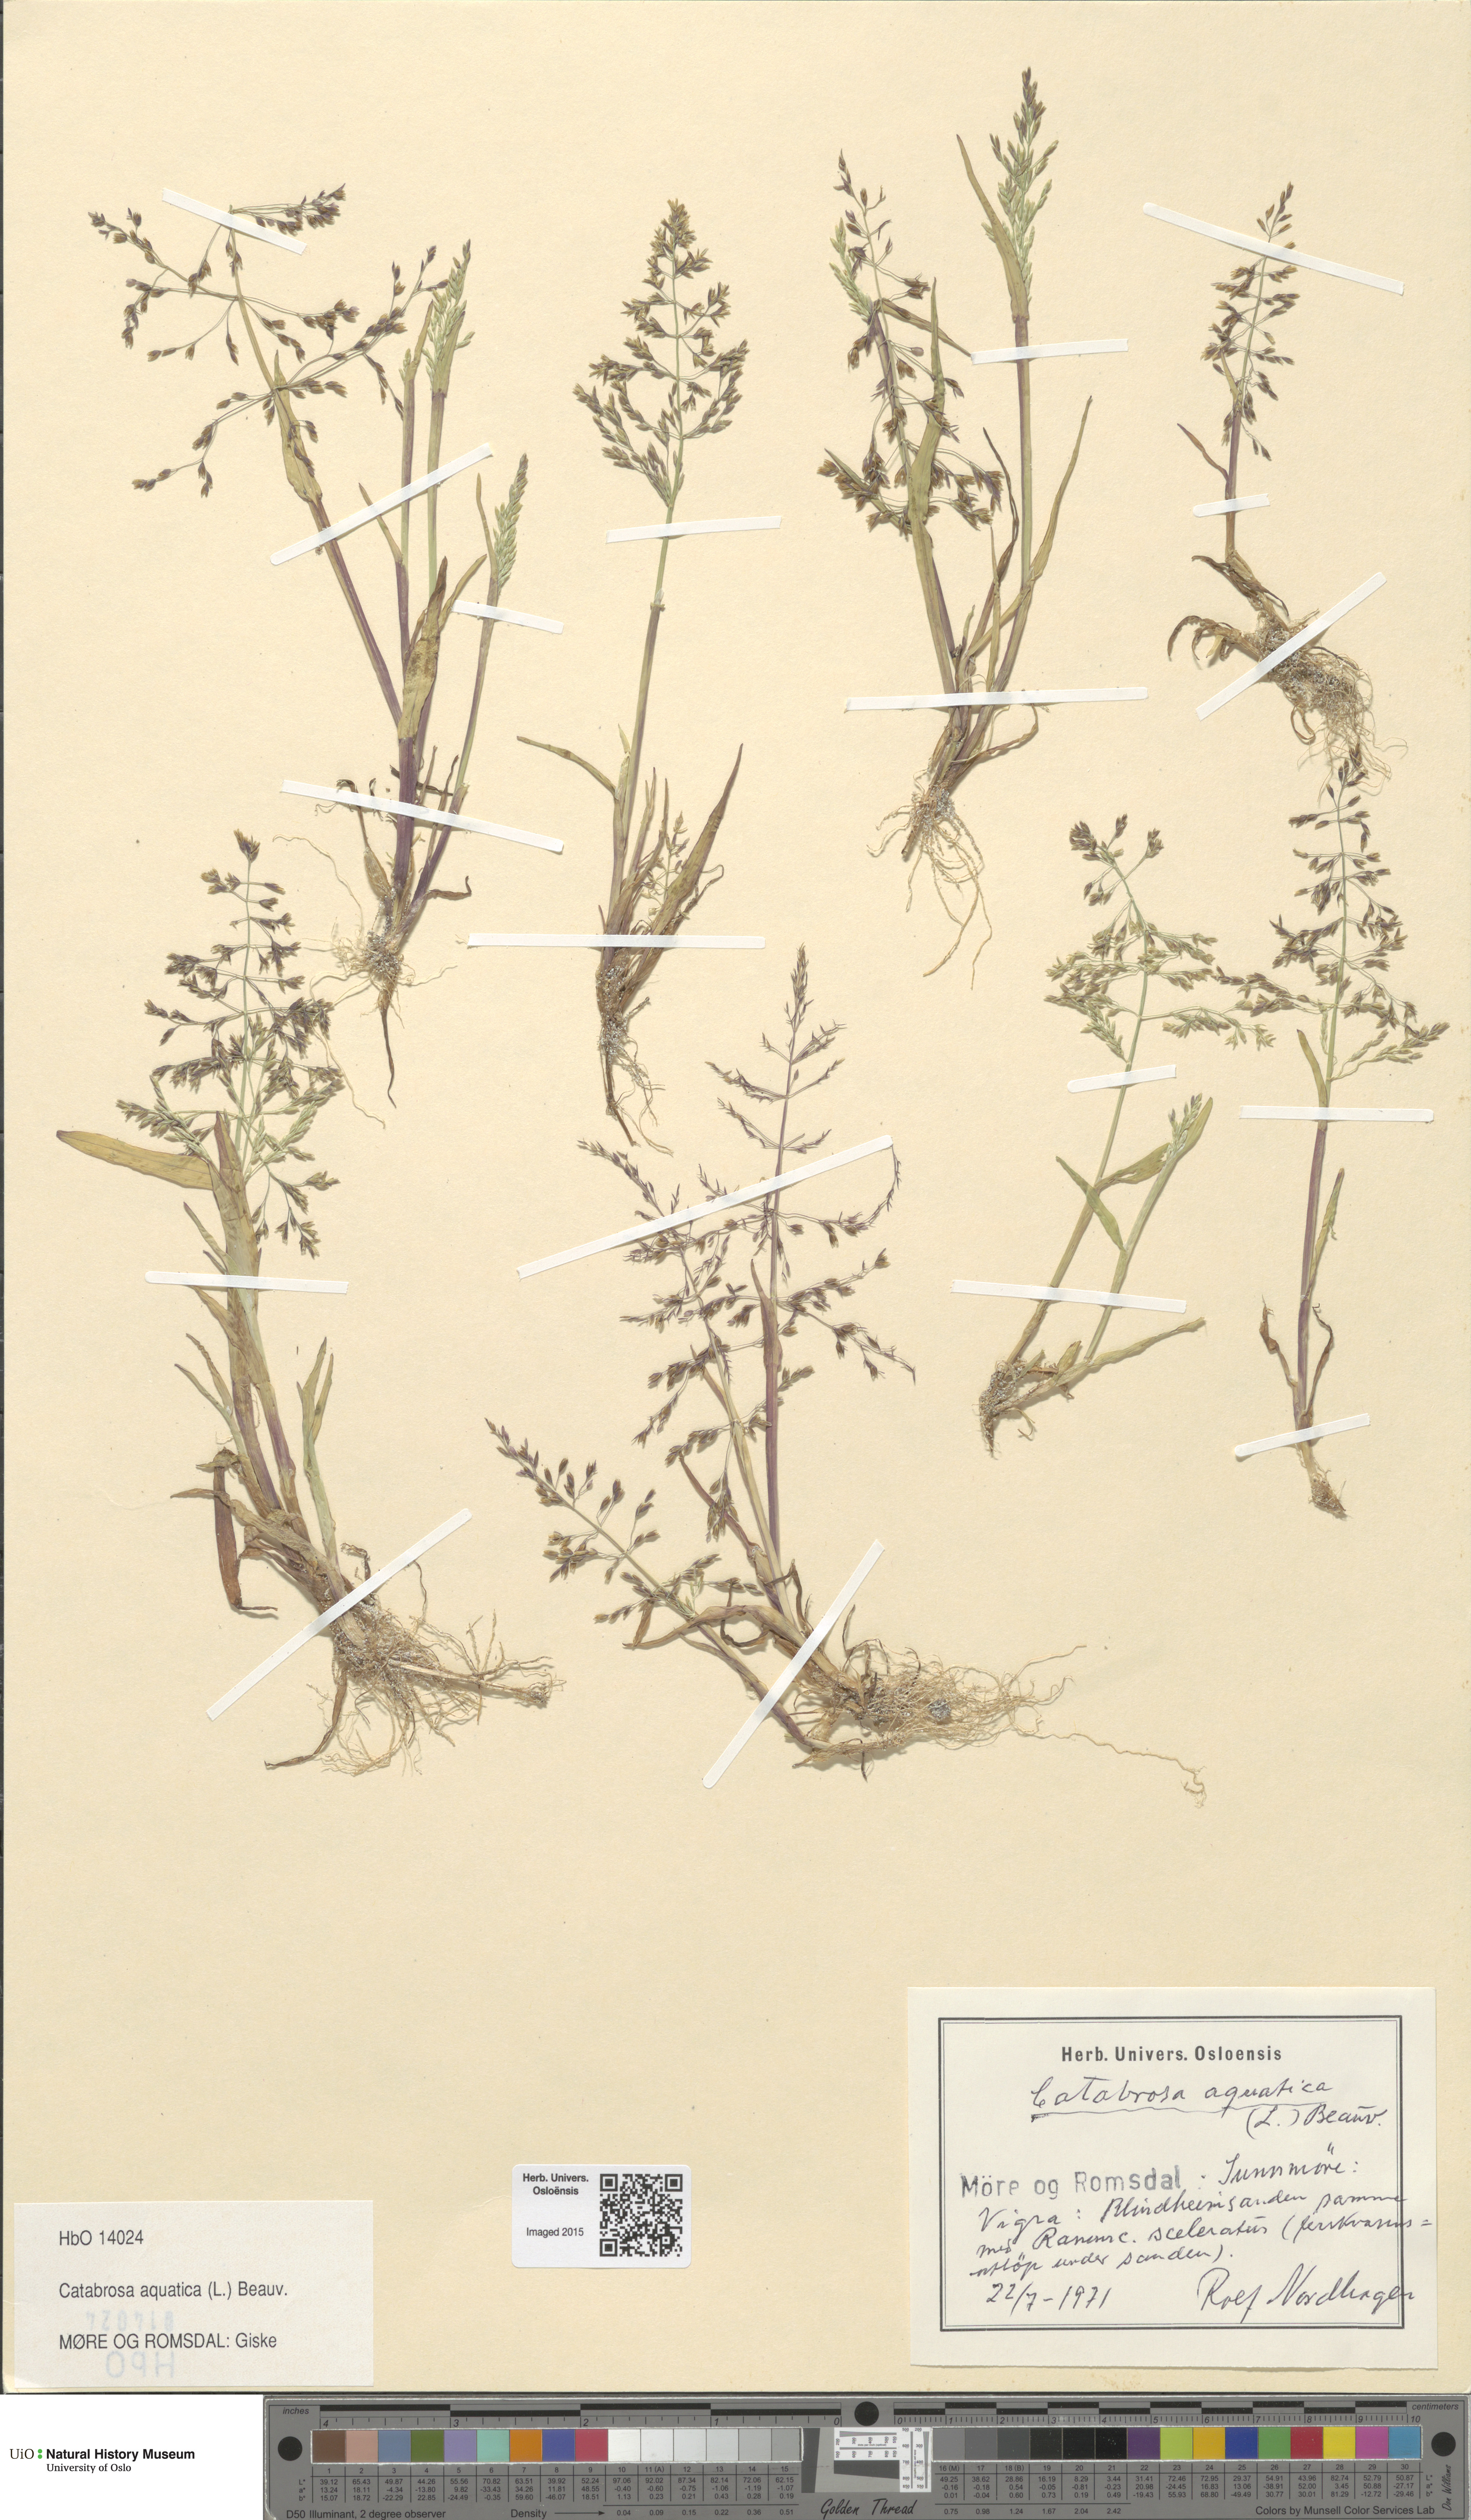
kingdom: Plantae
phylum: Tracheophyta
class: Liliopsida
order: Poales
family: Poaceae
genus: Catabrosa
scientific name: Catabrosa aquatica
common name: Whorl-grass
